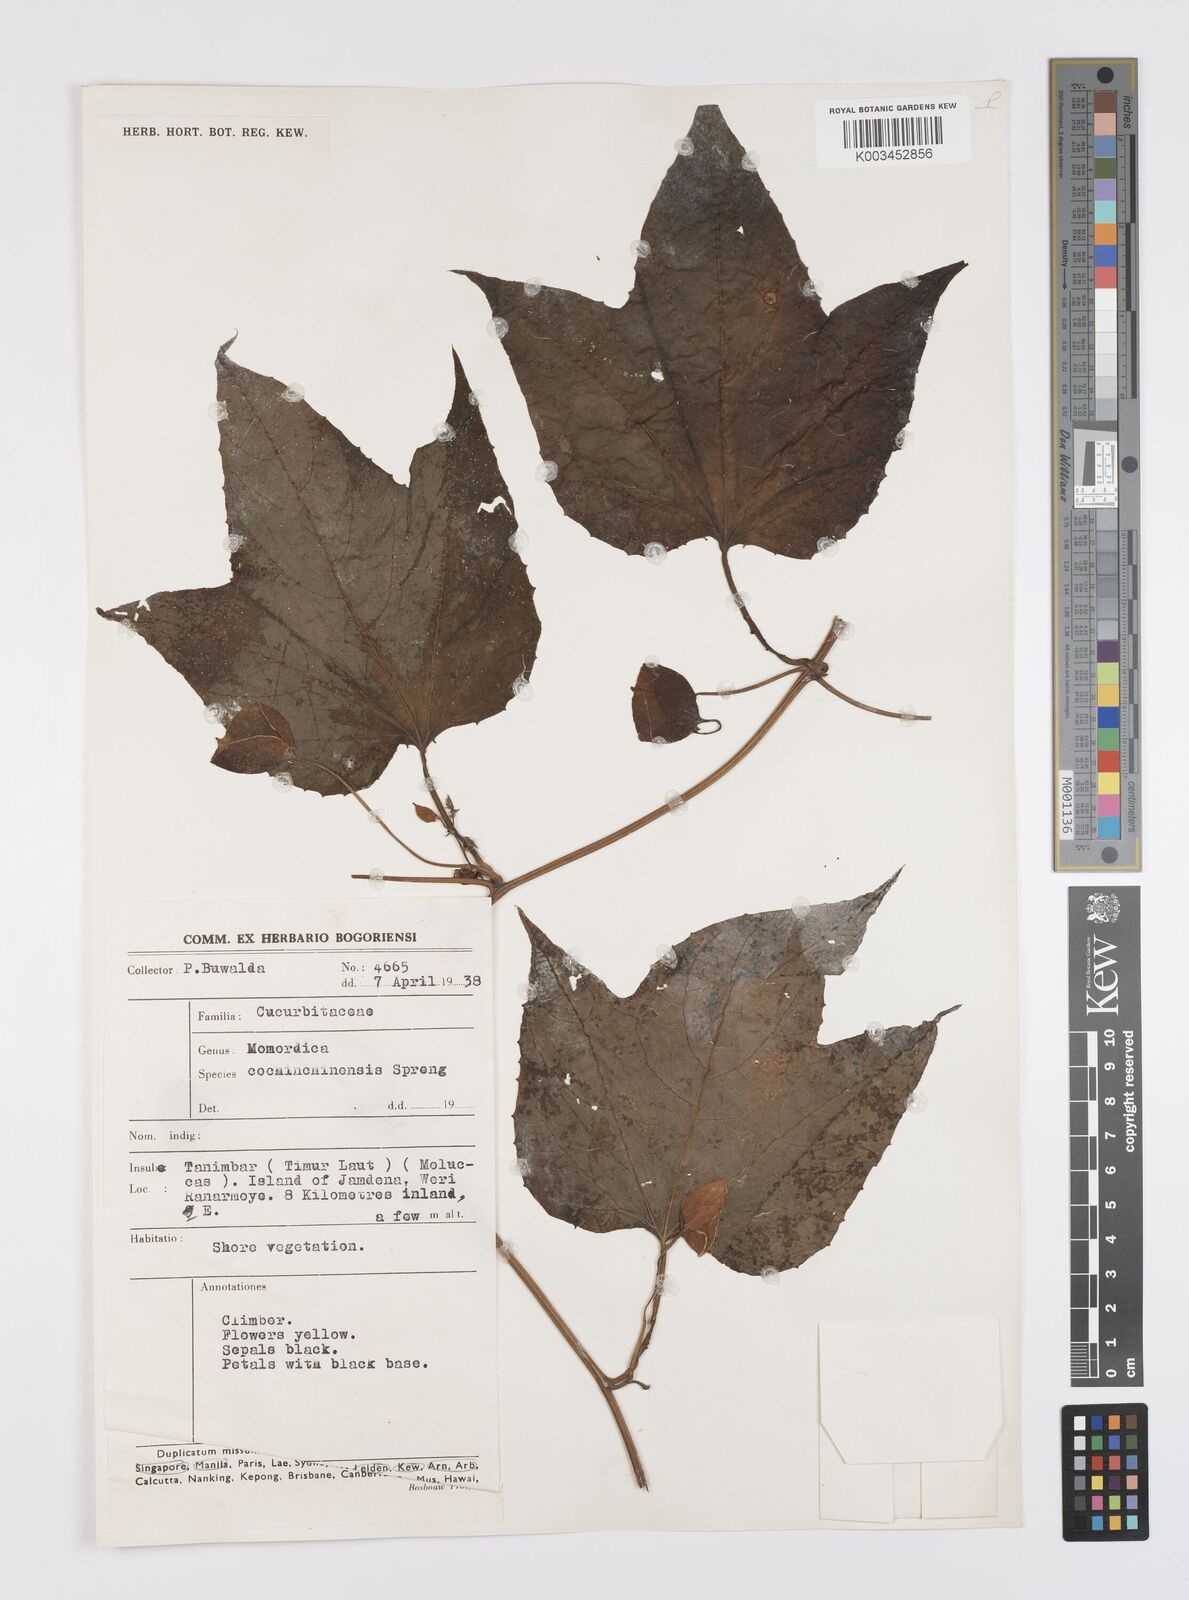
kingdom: Plantae
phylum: Tracheophyta
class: Magnoliopsida
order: Cucurbitales
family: Cucurbitaceae
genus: Momordica
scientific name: Momordica cochinchinensis
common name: Chinese bitter-cucumber
